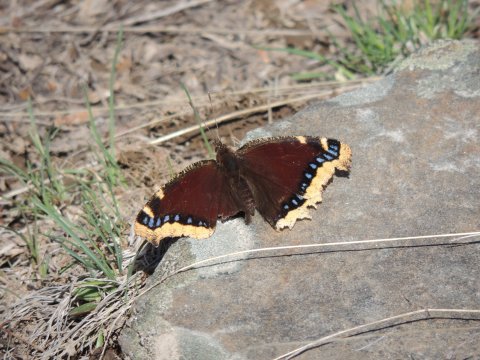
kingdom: Animalia
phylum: Arthropoda
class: Insecta
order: Lepidoptera
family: Nymphalidae
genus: Nymphalis
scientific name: Nymphalis antiopa
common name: Mourning Cloak
